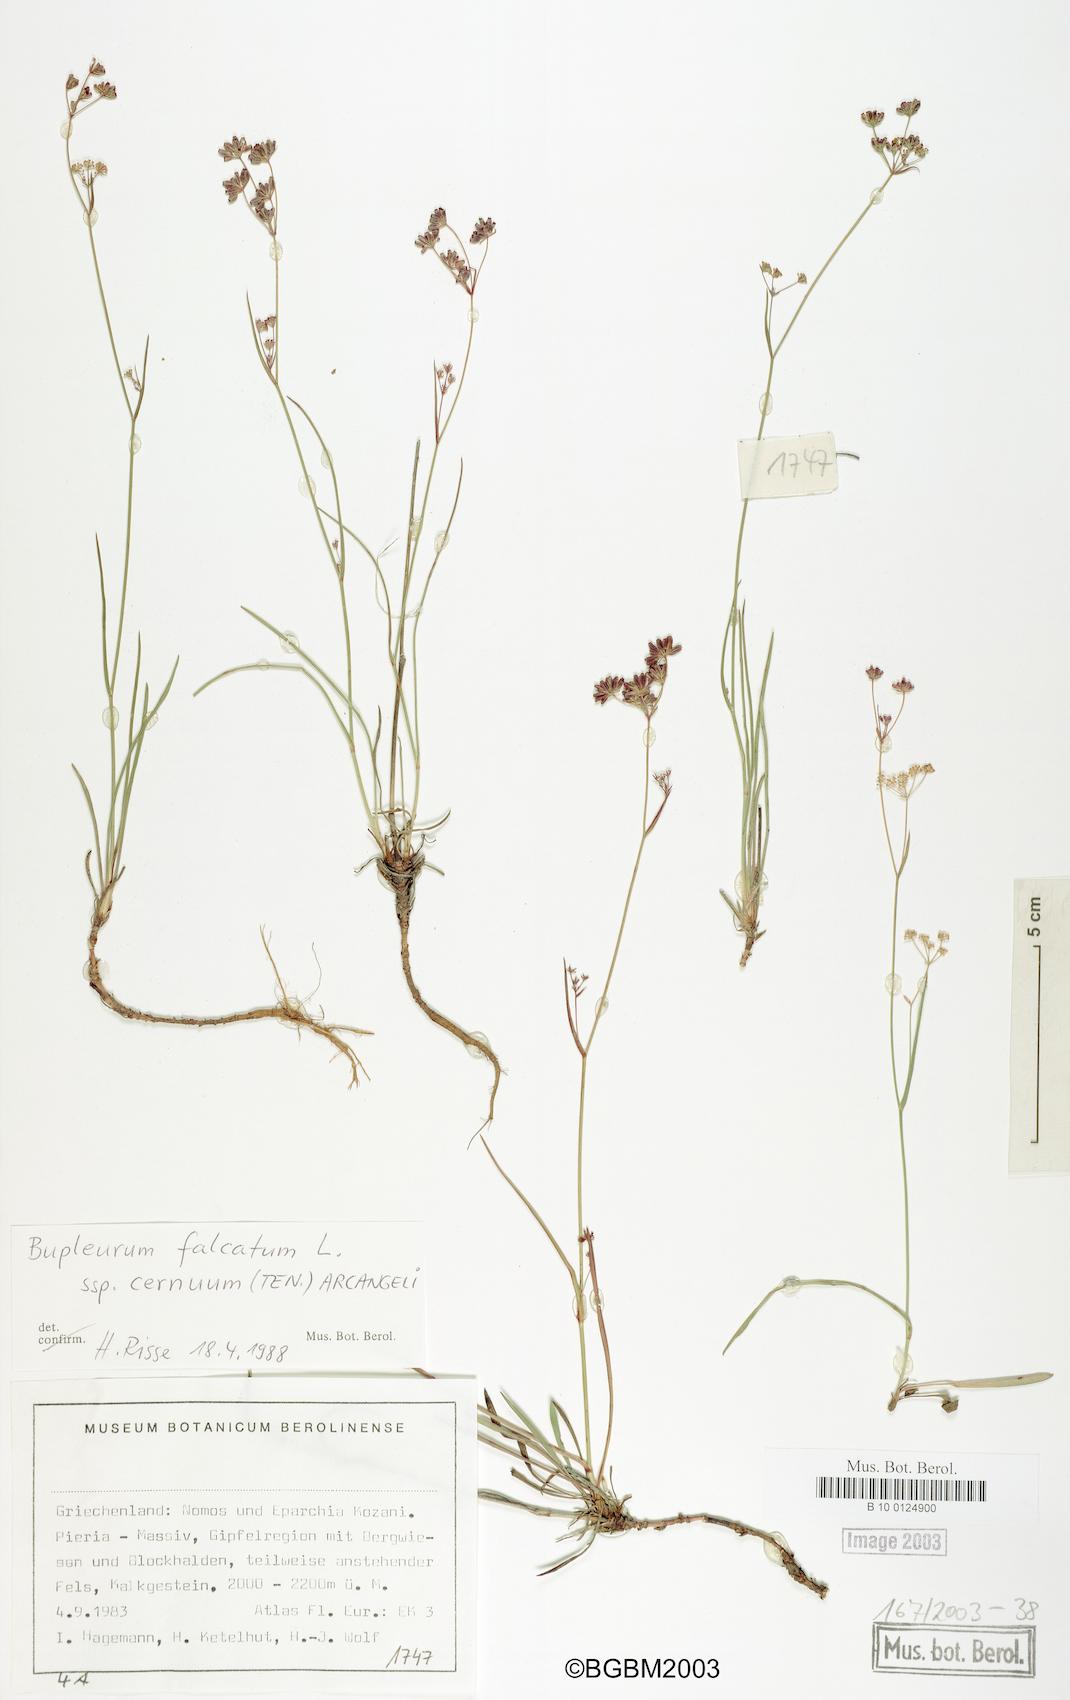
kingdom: Plantae
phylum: Tracheophyta
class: Magnoliopsida
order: Apiales
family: Apiaceae
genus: Bupleurum
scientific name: Bupleurum falcatum
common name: Sickle-leaved hare's-ear
